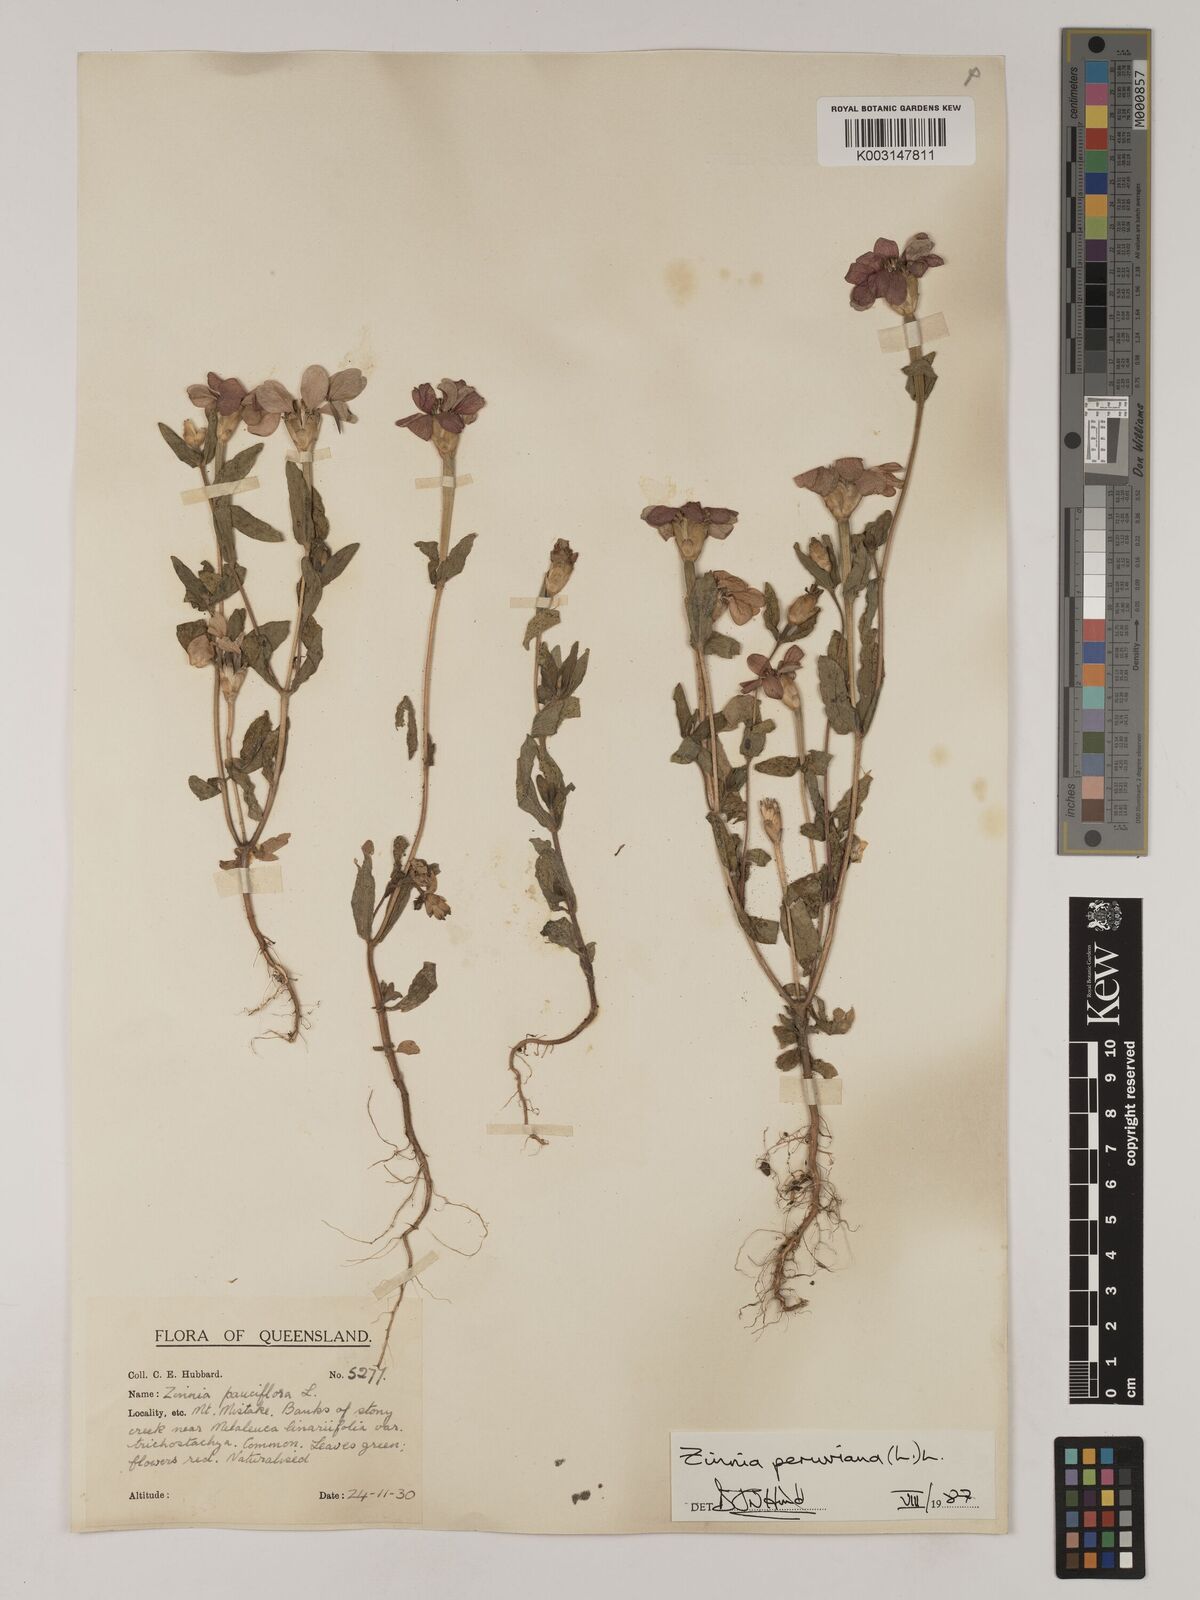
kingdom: Plantae
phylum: Tracheophyta
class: Magnoliopsida
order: Asterales
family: Asteraceae
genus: Zinnia
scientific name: Zinnia peruviana
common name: Peruvian zinnia
